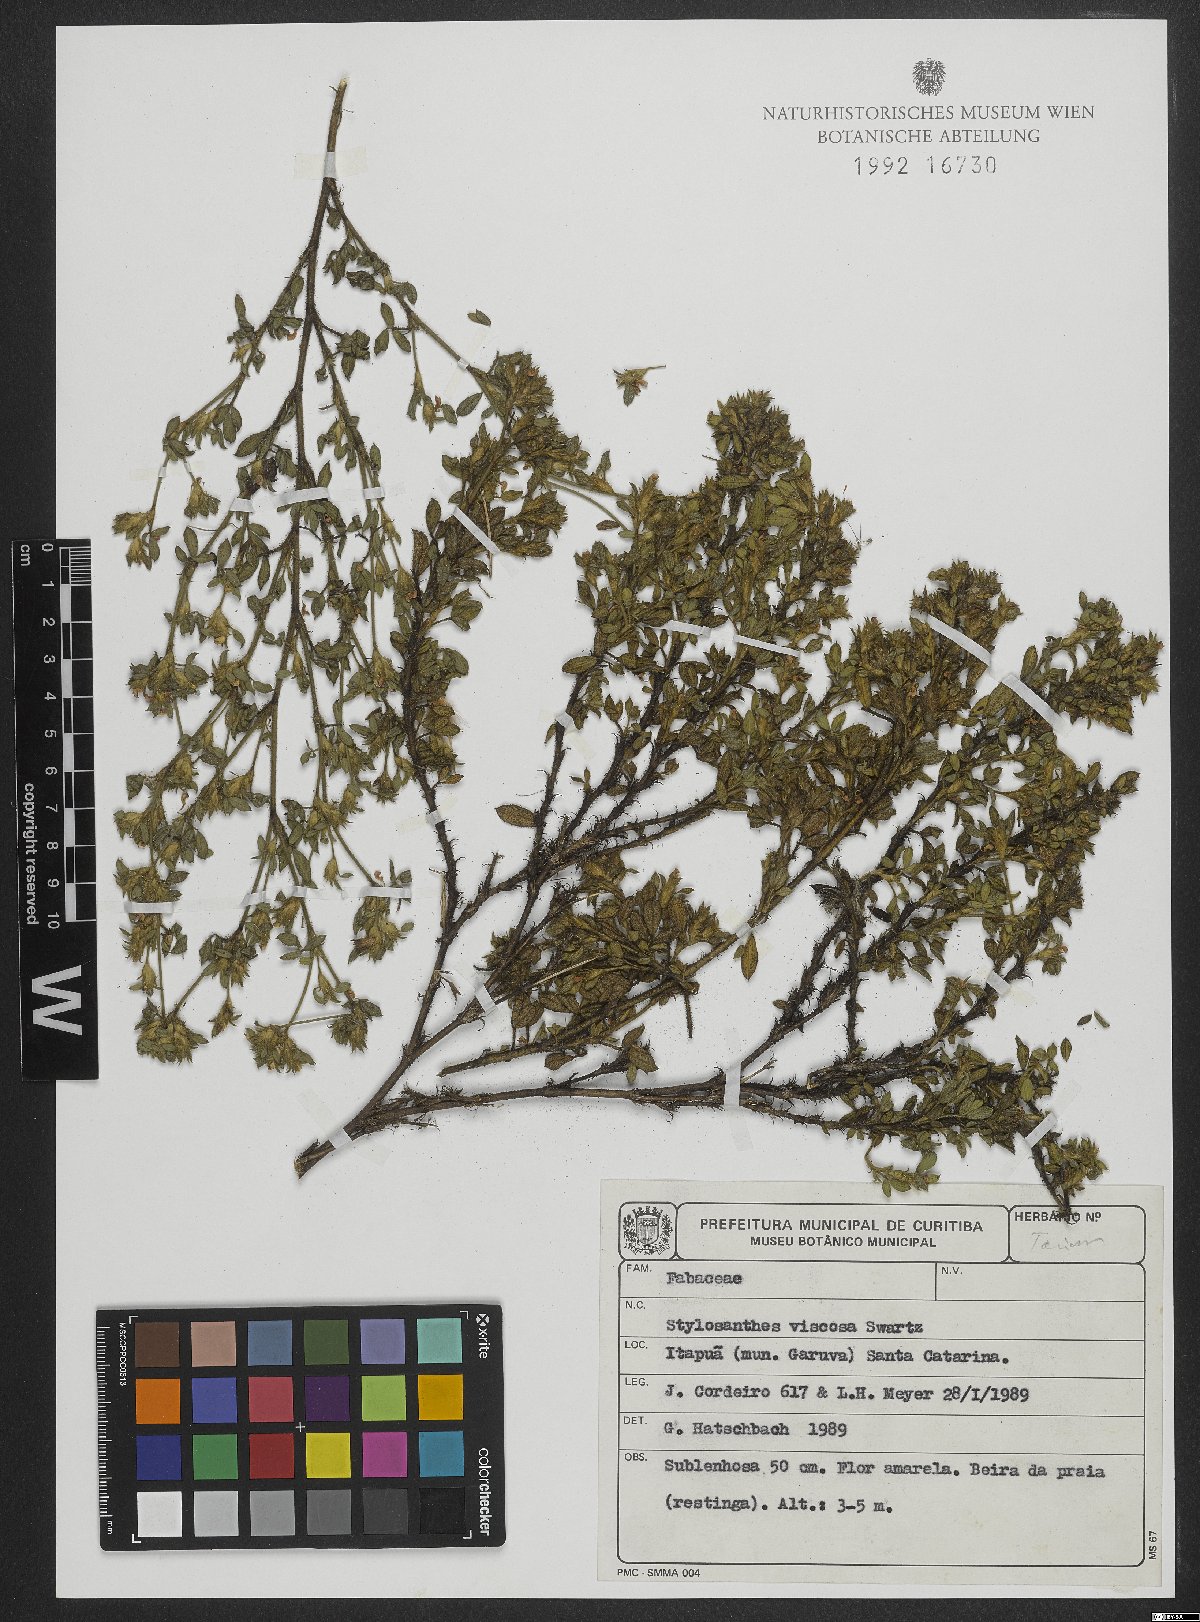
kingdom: Plantae
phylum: Tracheophyta
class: Magnoliopsida
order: Fabales
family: Fabaceae
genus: Stylosanthes
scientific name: Stylosanthes viscosa
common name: Viscid pencil-flower
